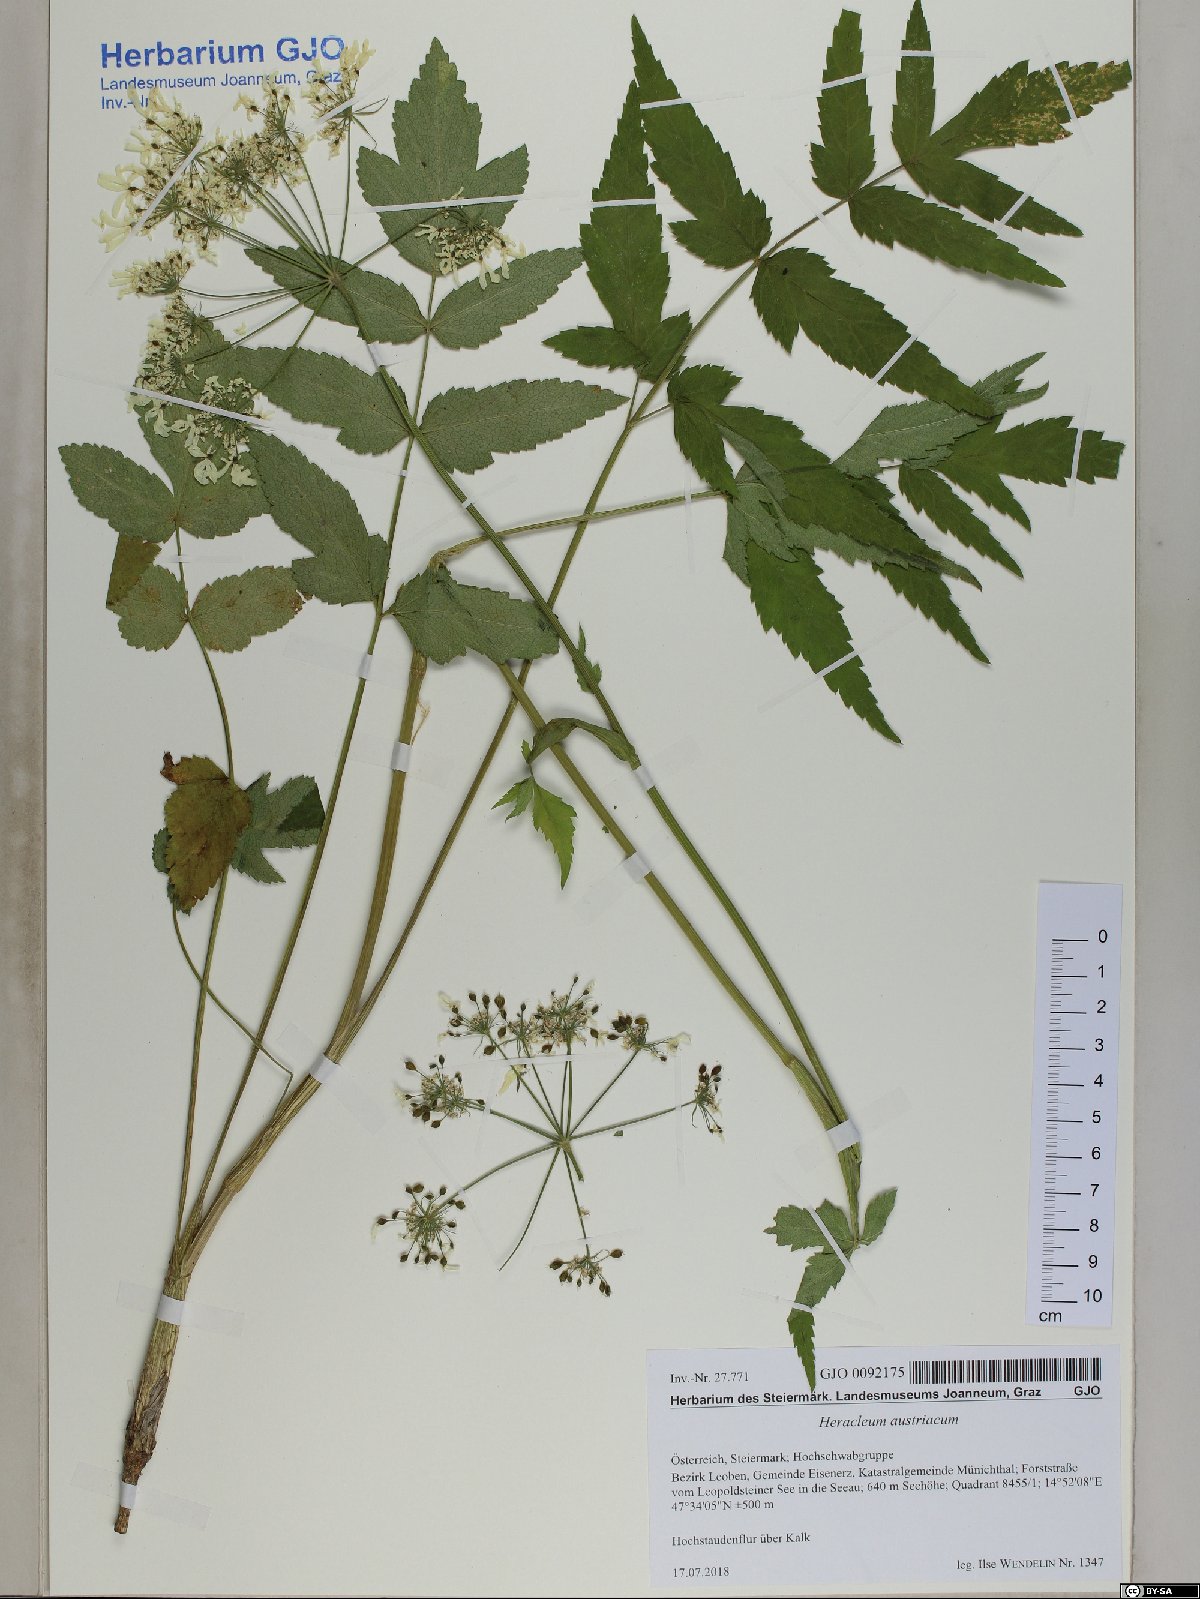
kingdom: Plantae
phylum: Tracheophyta
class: Magnoliopsida
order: Apiales
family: Apiaceae
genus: Heracleum
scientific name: Heracleum austriacum
